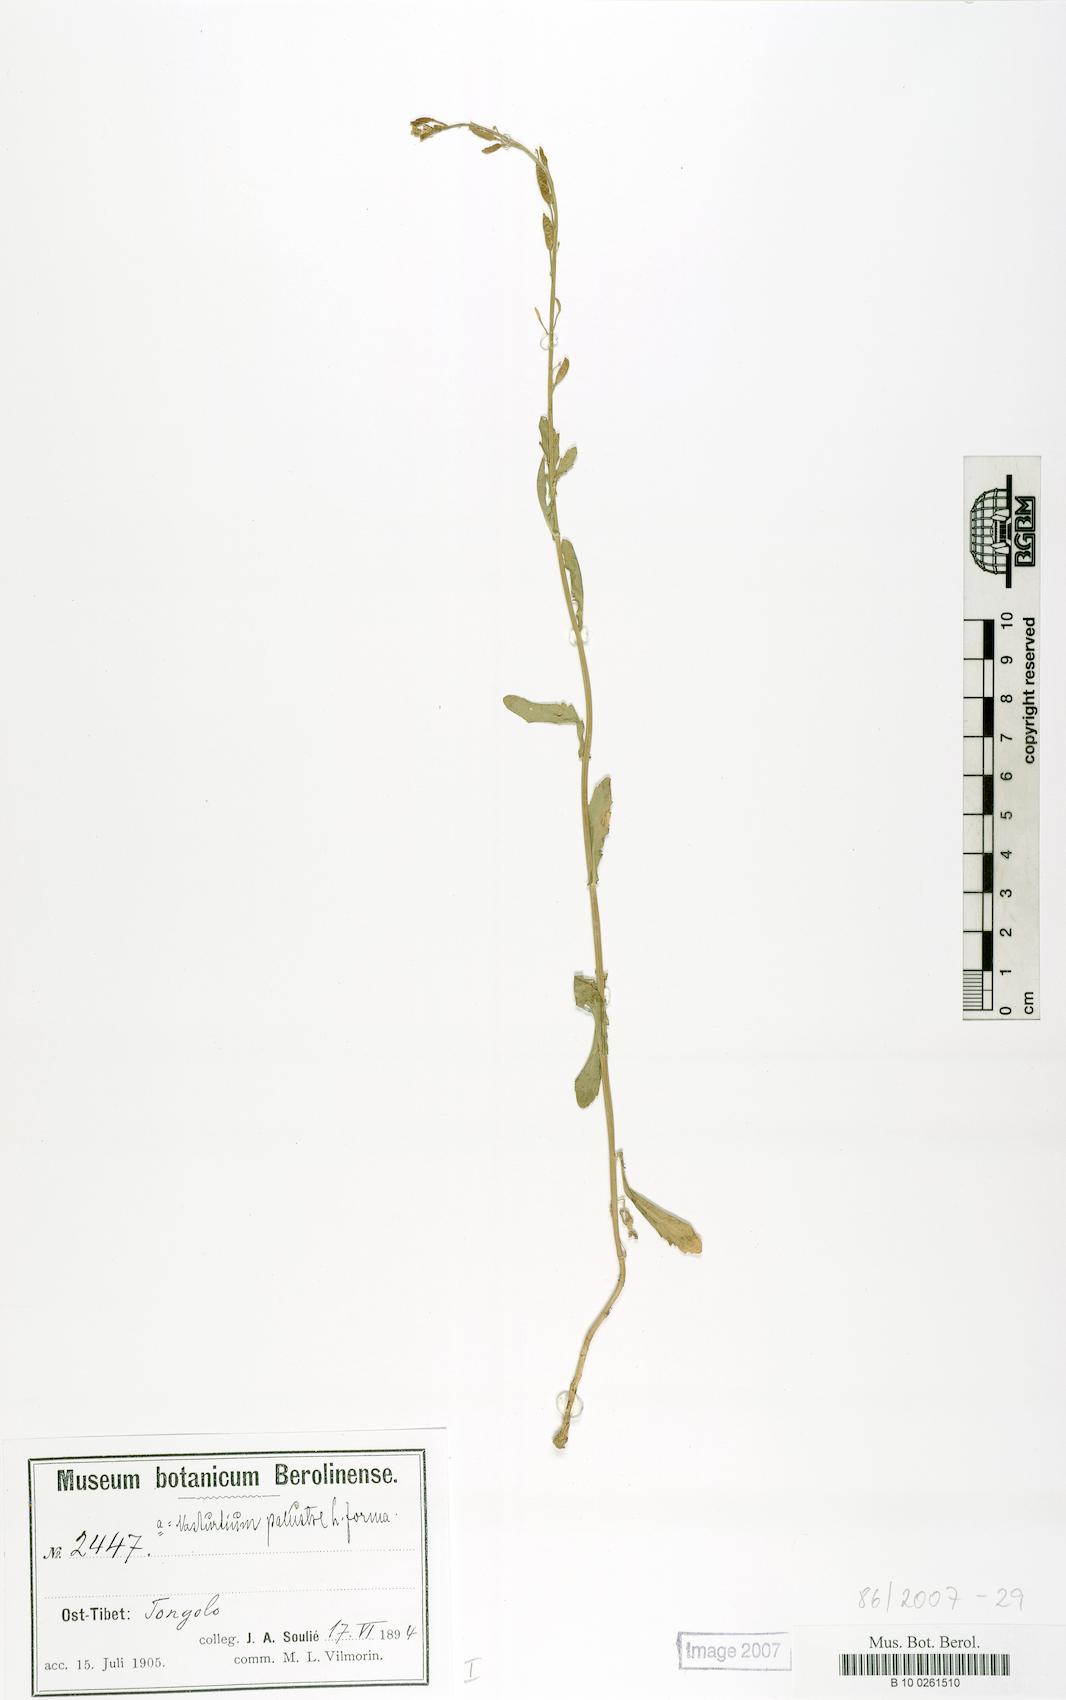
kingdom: Plantae
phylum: Tracheophyta
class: Magnoliopsida
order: Brassicales
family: Brassicaceae
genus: Rorippa
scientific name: Rorippa palustris
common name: Marsh yellow-cress
